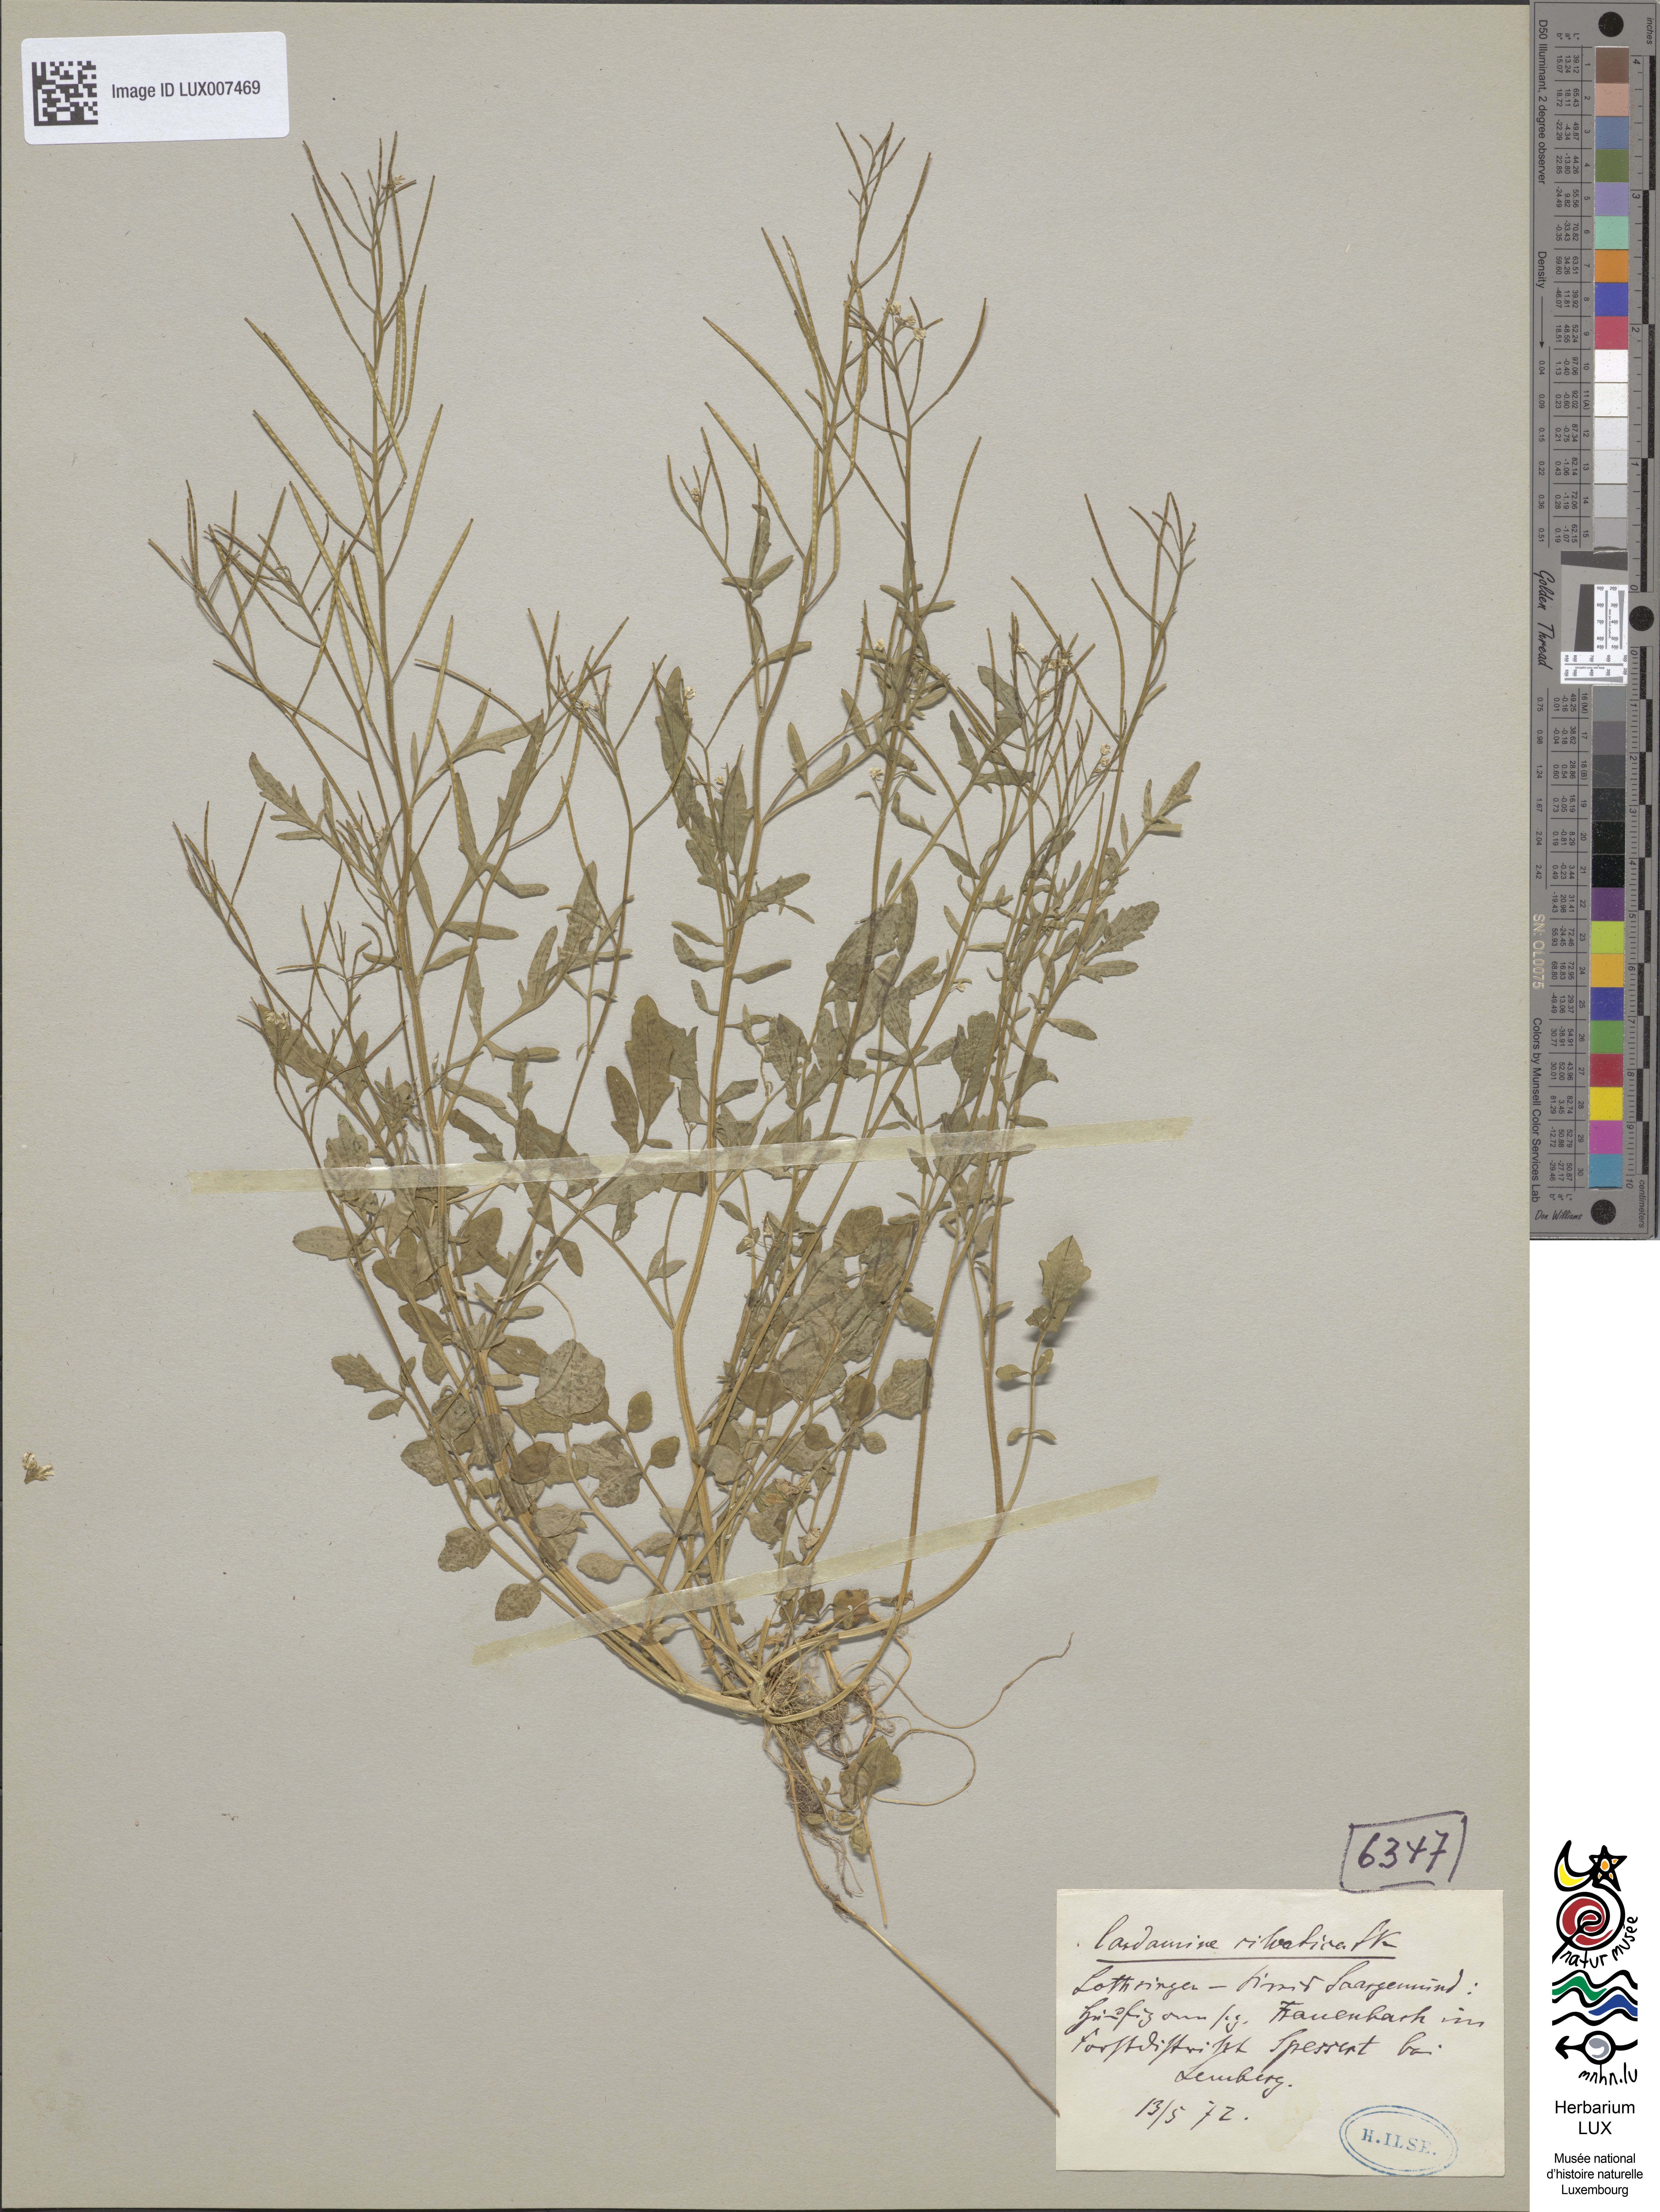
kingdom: Plantae
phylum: Tracheophyta
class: Magnoliopsida
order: Brassicales
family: Brassicaceae
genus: Cardamine
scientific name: Cardamine flexuosa
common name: Woodland bittercress
